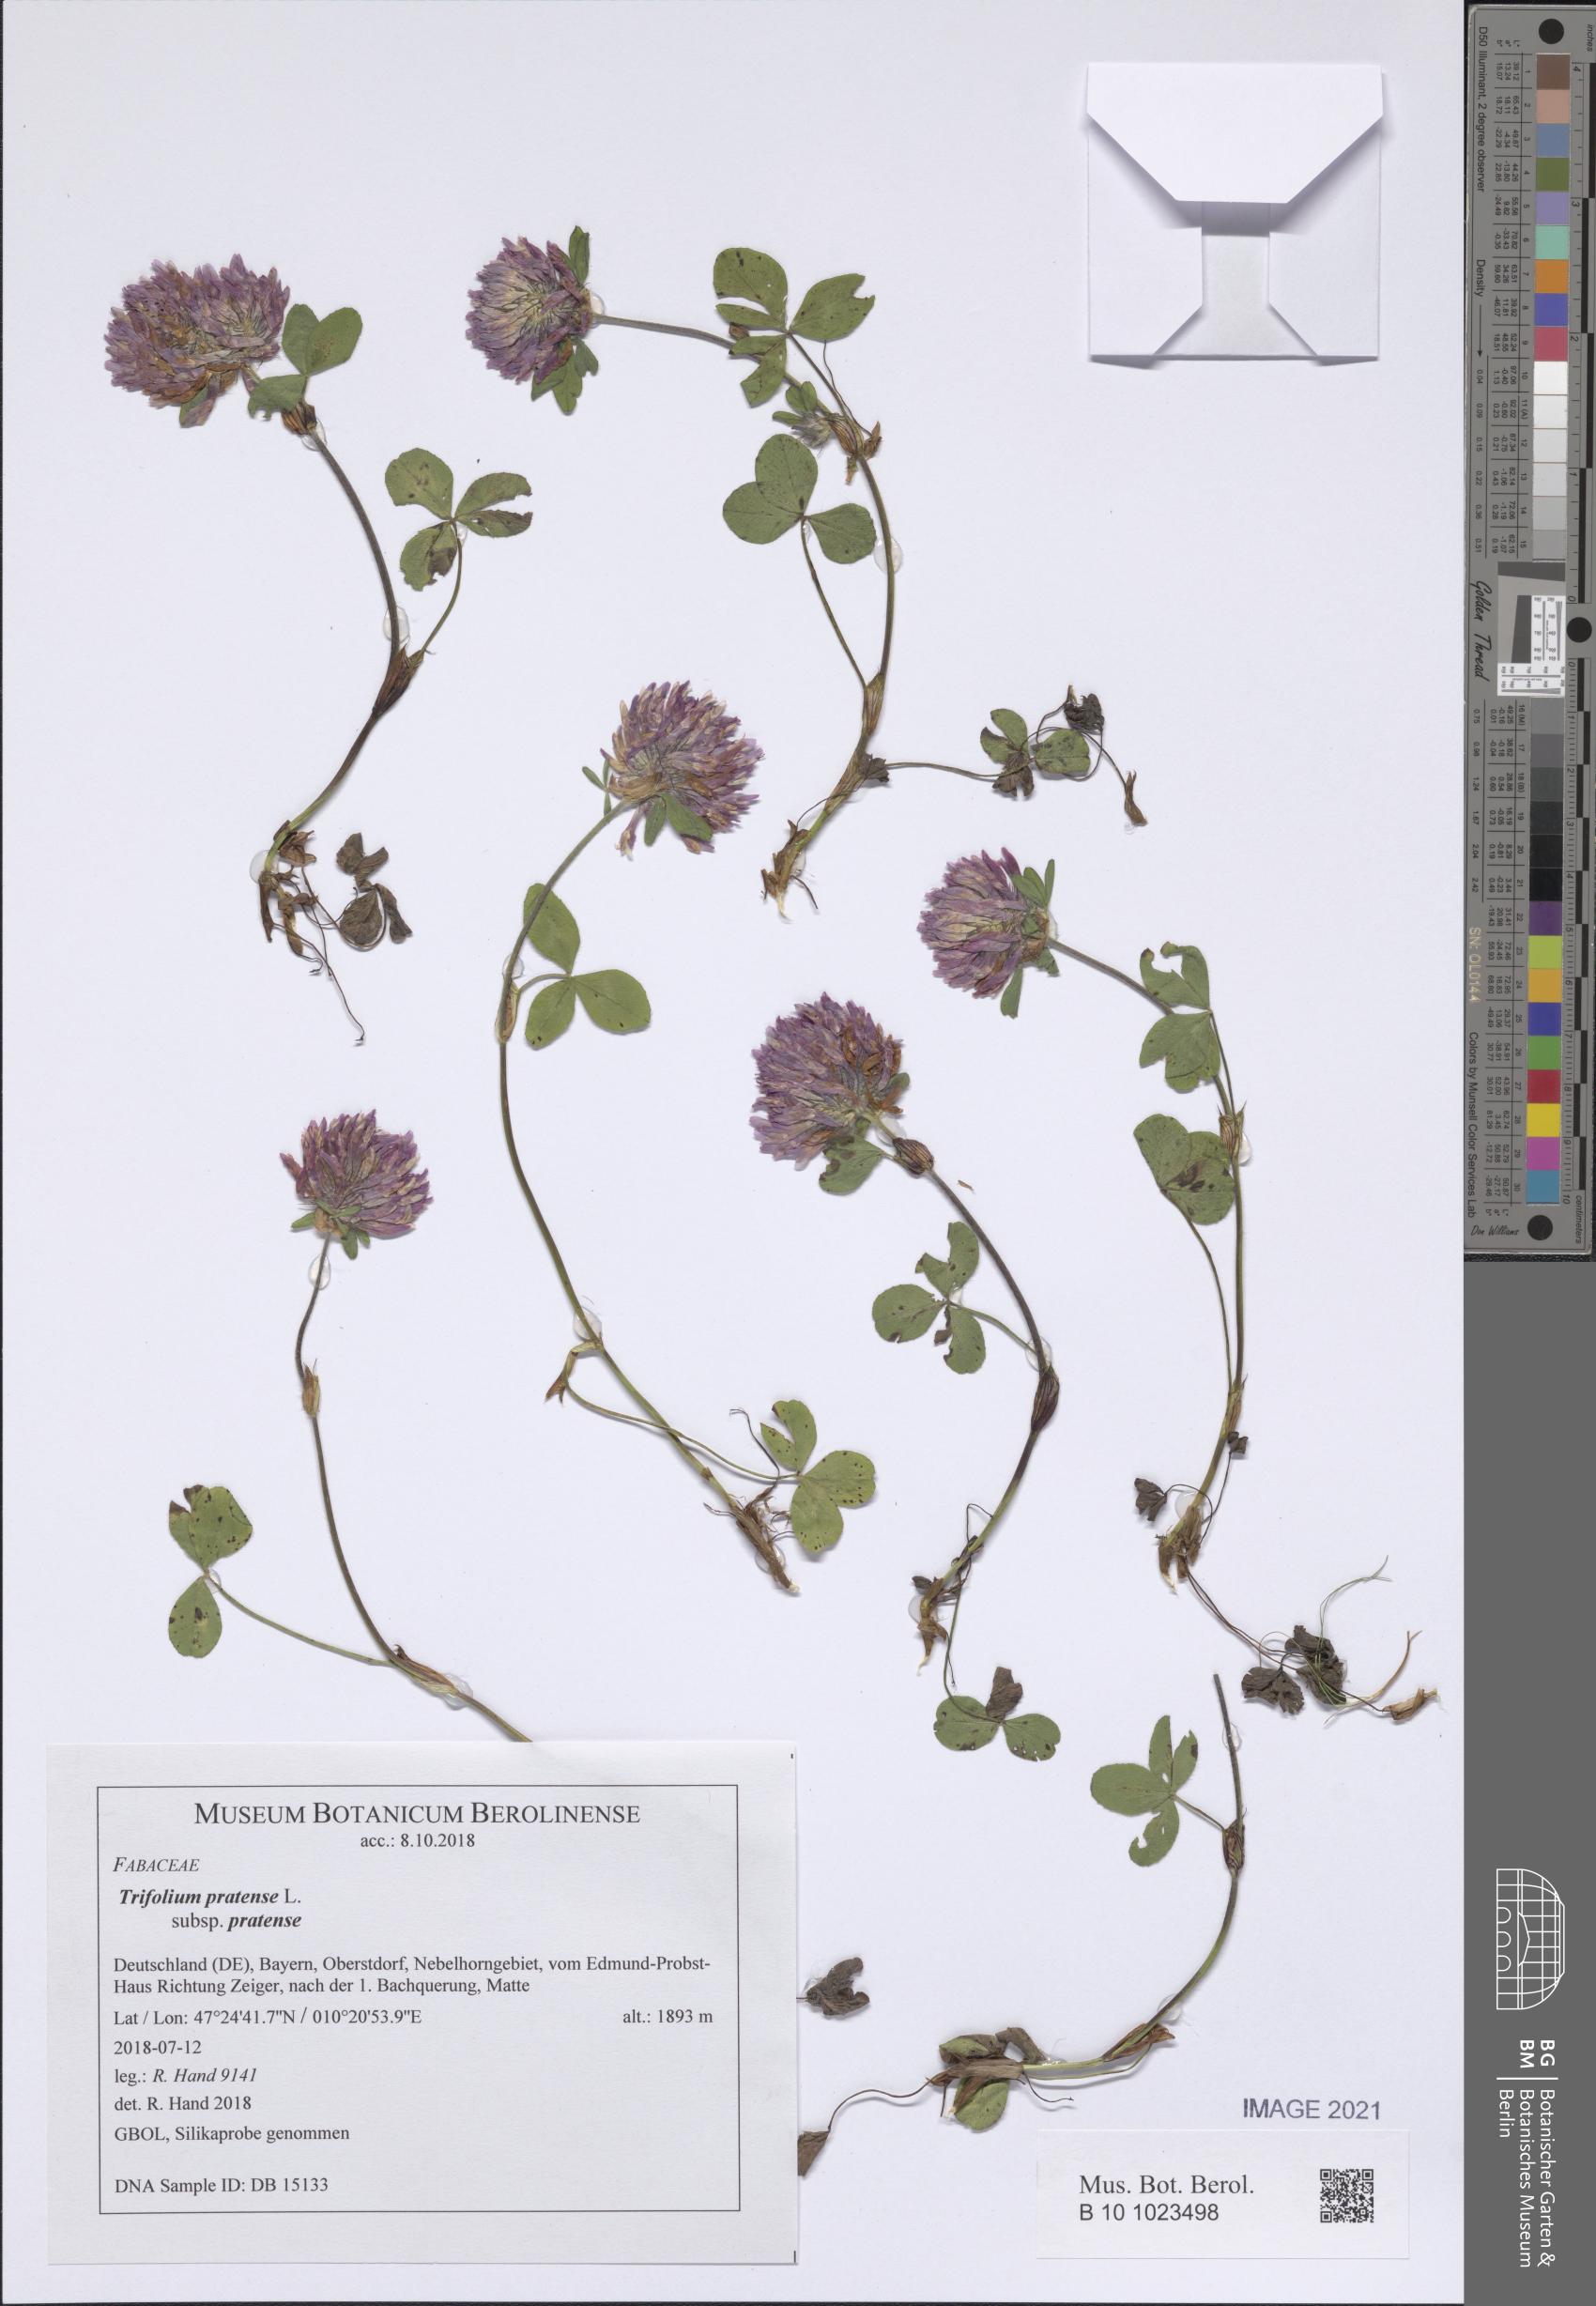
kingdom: Plantae
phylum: Tracheophyta
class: Magnoliopsida
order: Fabales
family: Fabaceae
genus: Trifolium
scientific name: Trifolium pratense
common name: Red clover
